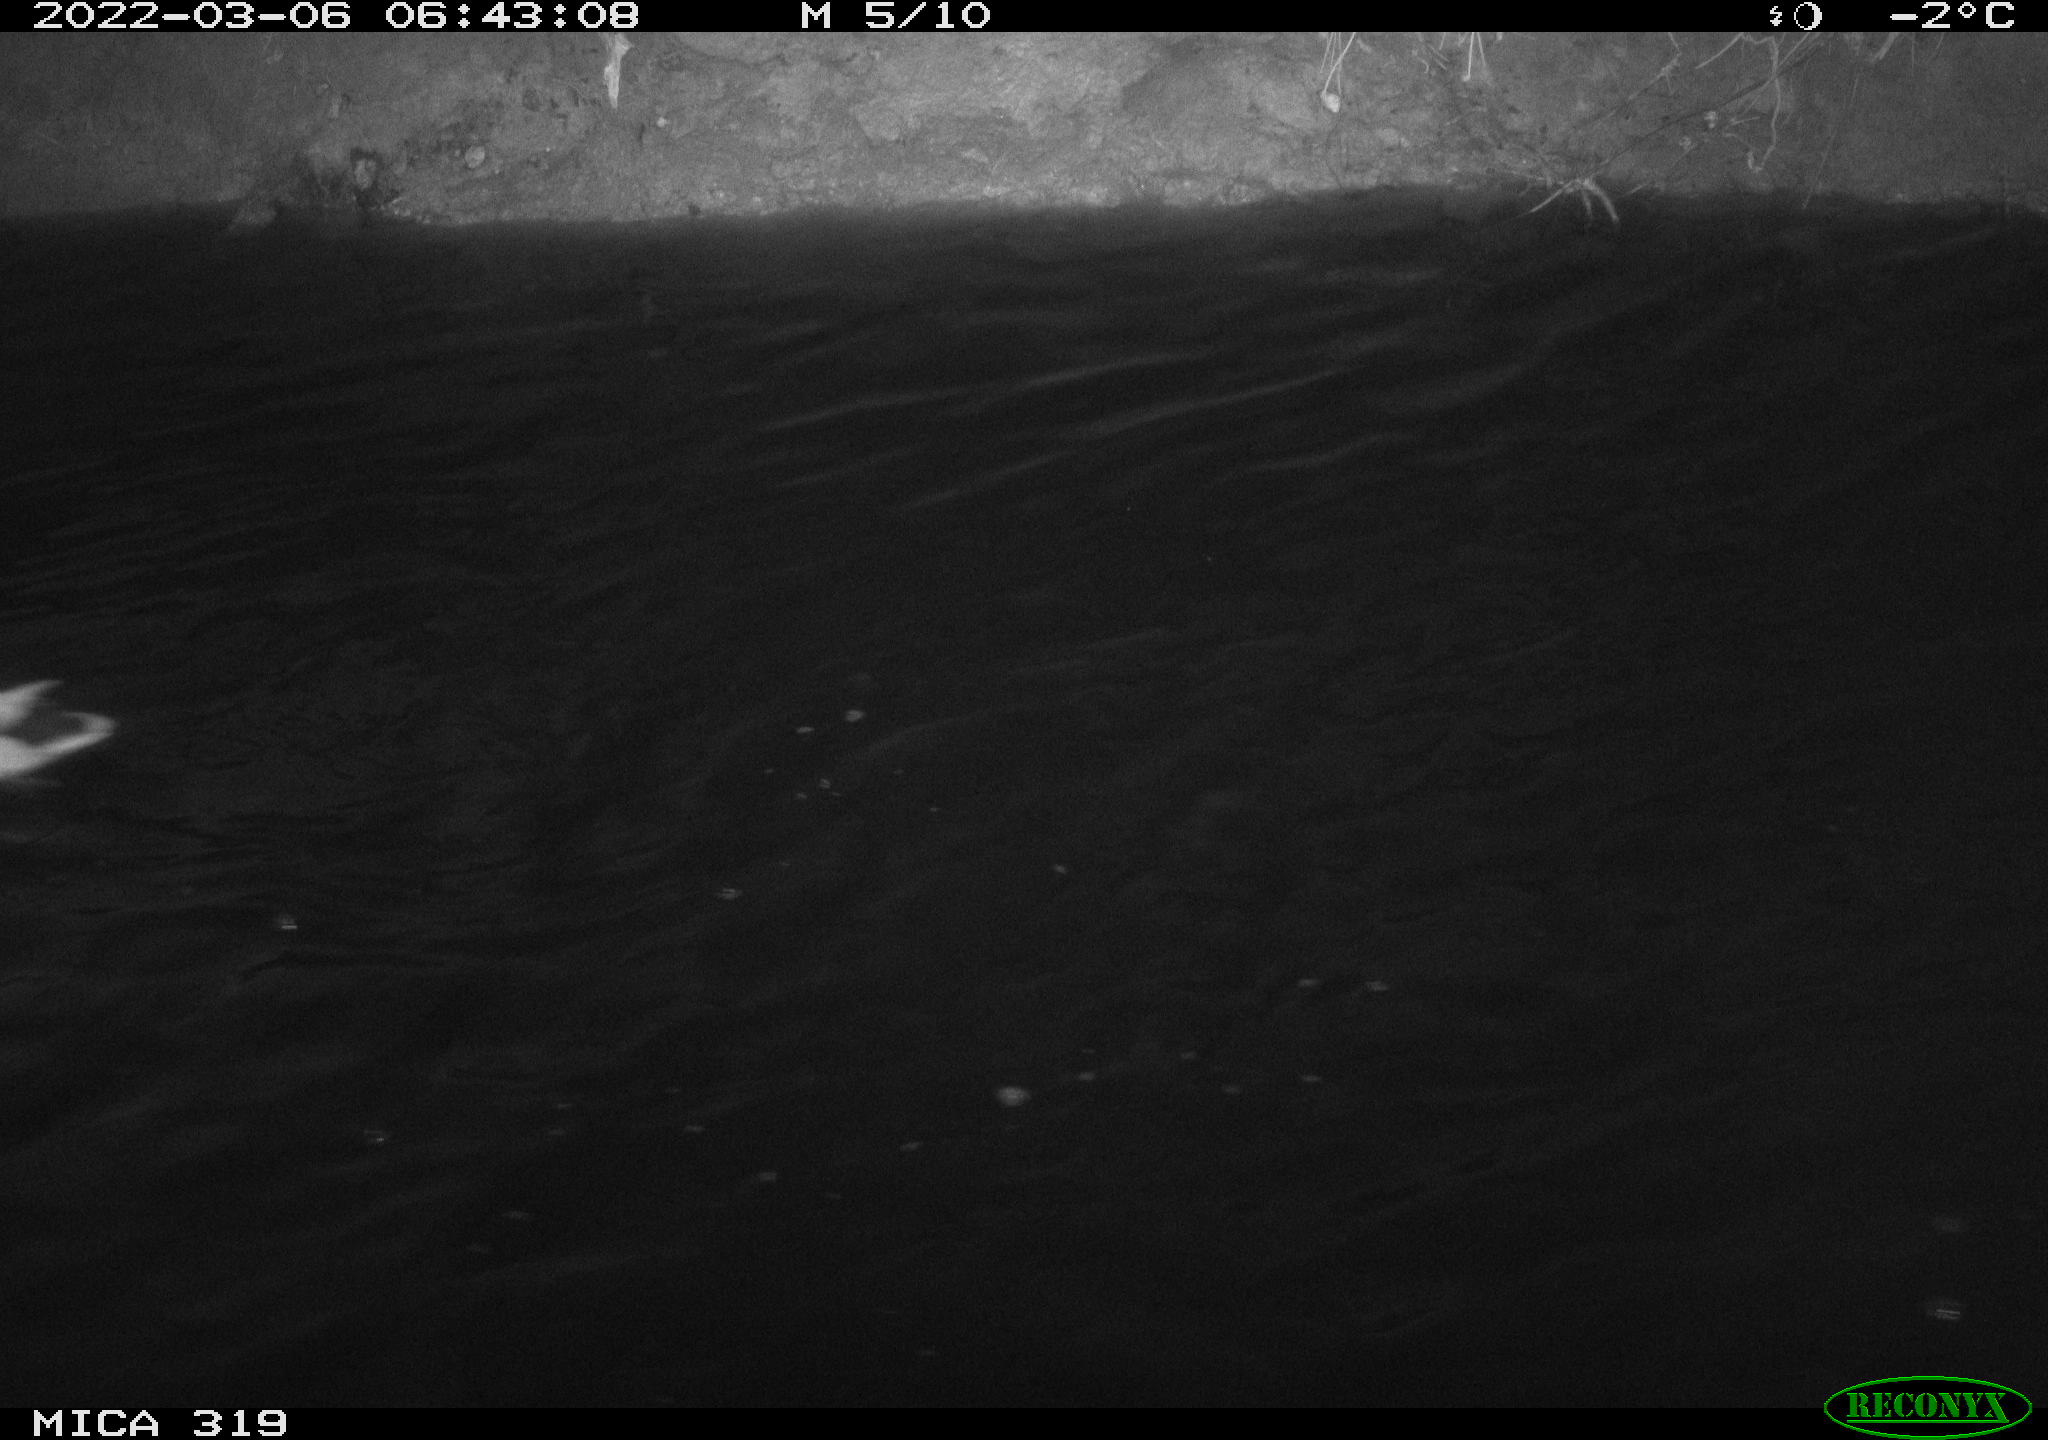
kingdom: Animalia
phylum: Chordata
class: Aves
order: Anseriformes
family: Anatidae
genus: Anas
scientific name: Anas platyrhynchos
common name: Mallard
